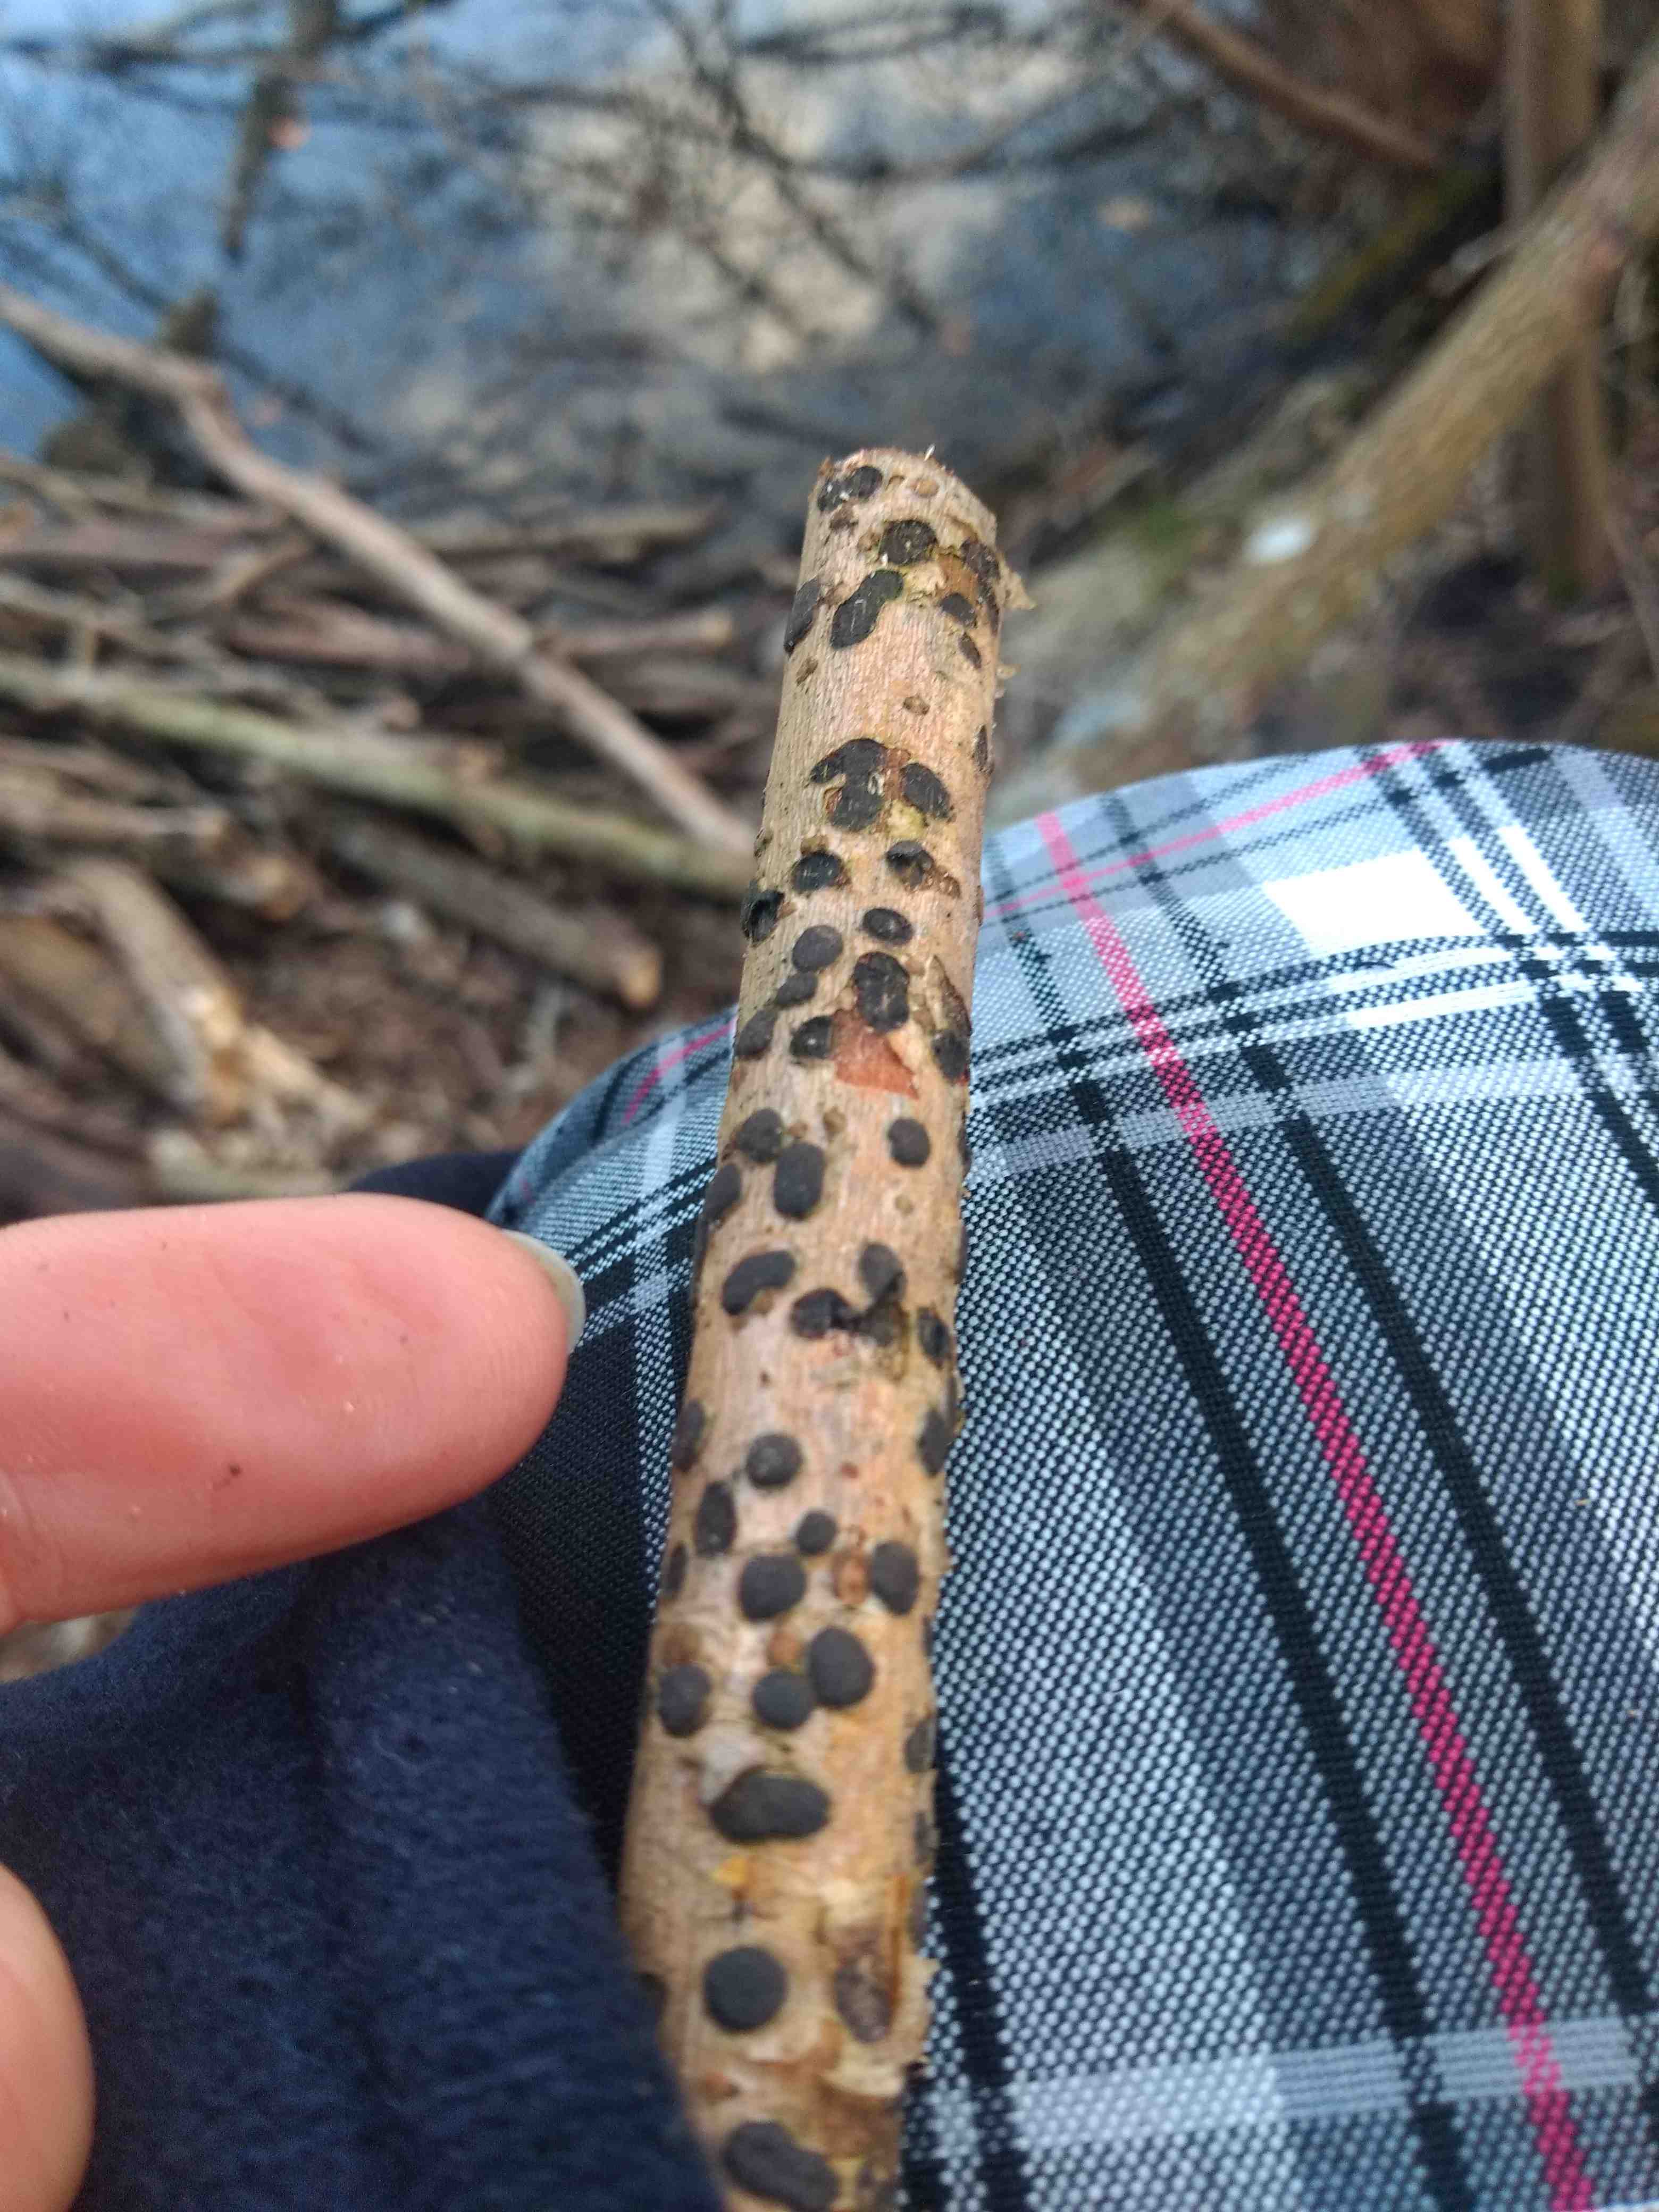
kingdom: Fungi
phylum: Ascomycota
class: Sordariomycetes
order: Xylariales
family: Diatrypaceae
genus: Diatrype
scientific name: Diatrype bullata
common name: pile-kulskorpe
